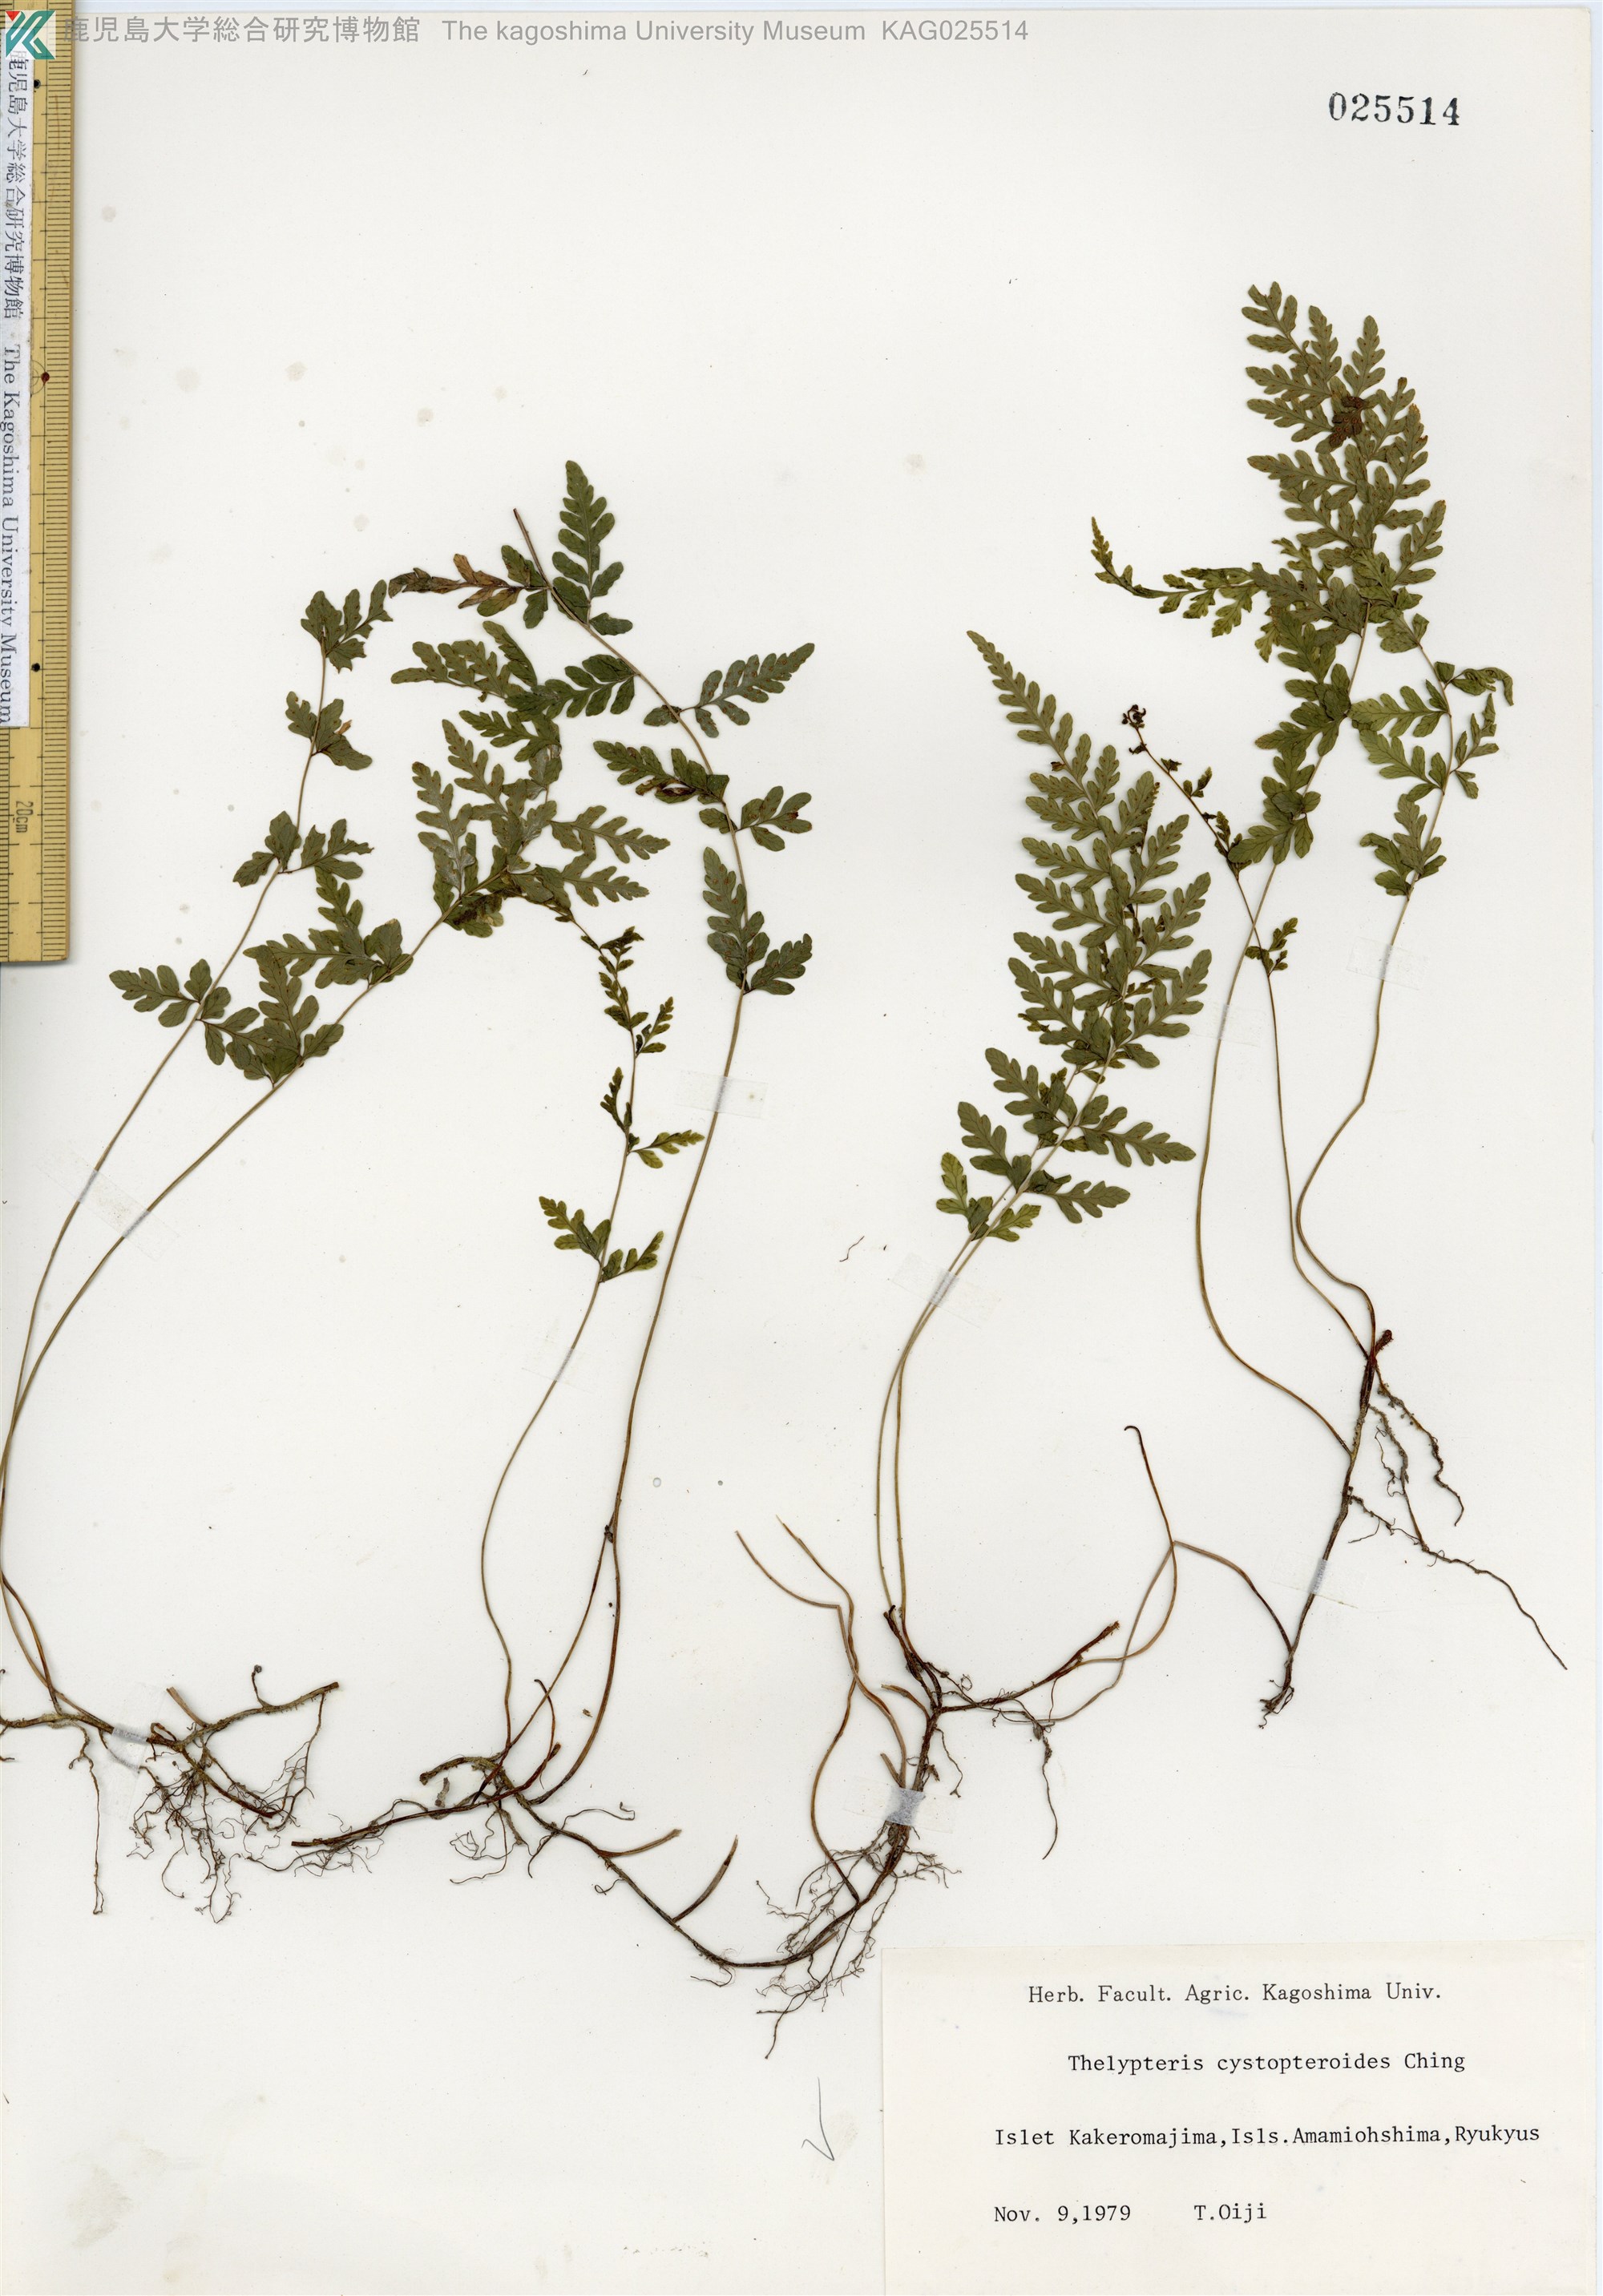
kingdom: Plantae
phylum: Tracheophyta
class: Polypodiopsida
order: Polypodiales
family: Thelypteridaceae
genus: Amauropelta
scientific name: Amauropelta cystopteroides
